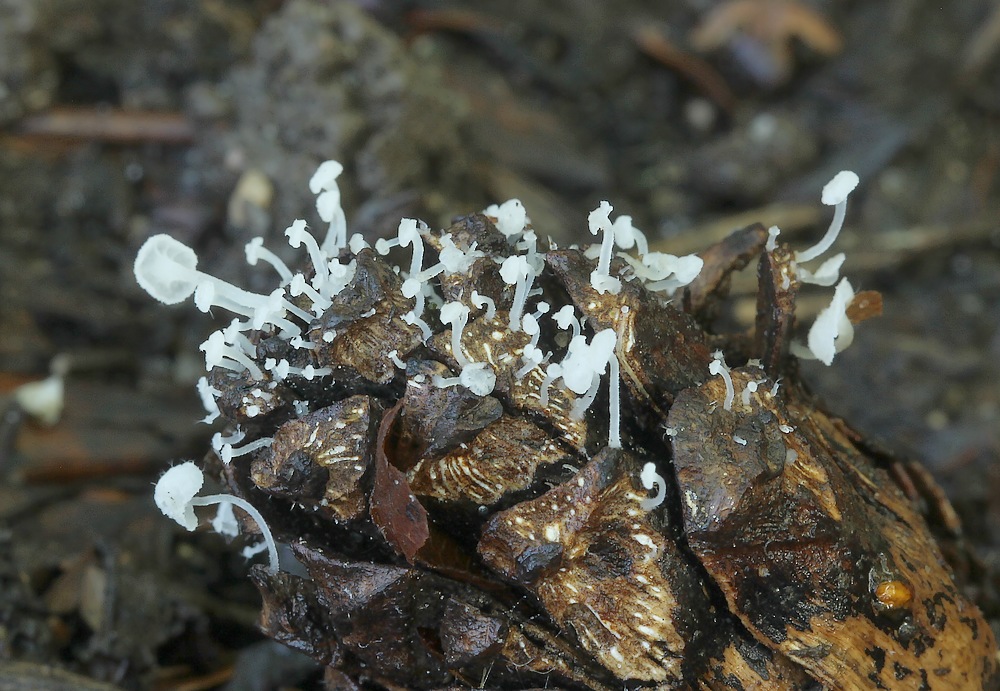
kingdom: Fungi
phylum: Basidiomycota
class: Agaricomycetes
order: Agaricales
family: Mycenaceae
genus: Hemimycena
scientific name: Hemimycena hirsuta
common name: håret huesvamp
